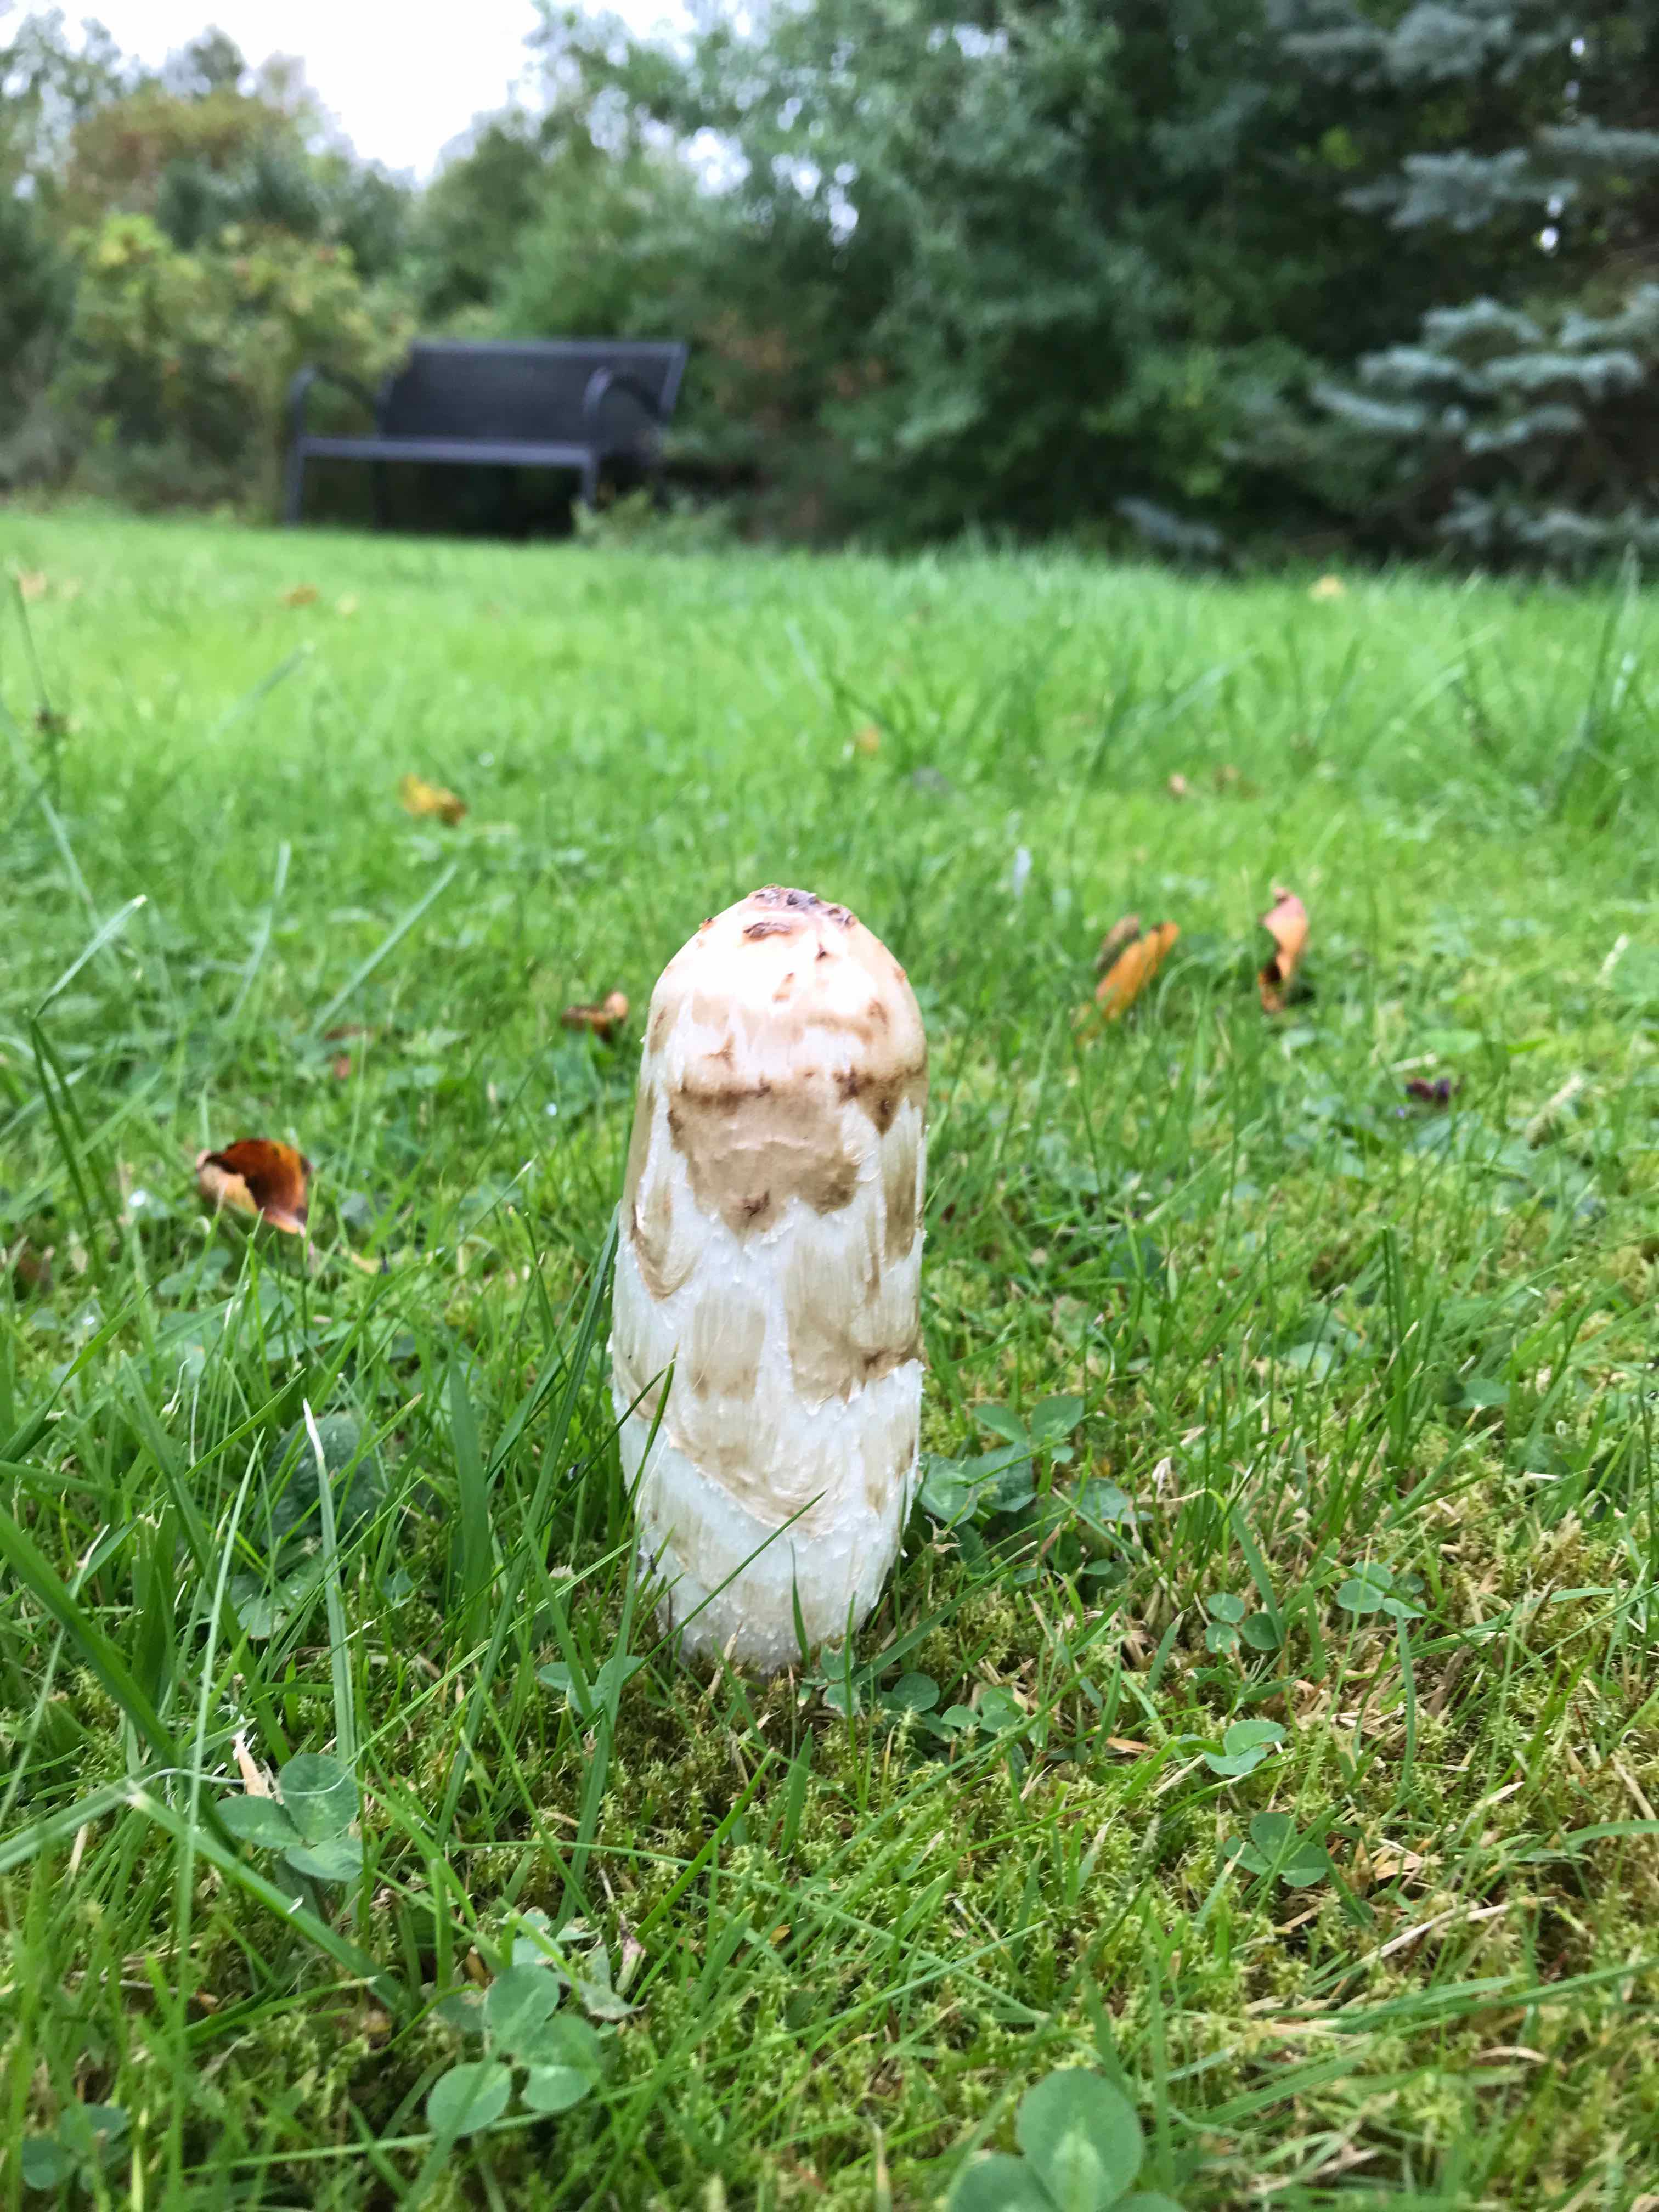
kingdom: Fungi
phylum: Basidiomycota
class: Agaricomycetes
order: Agaricales
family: Agaricaceae
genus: Coprinus
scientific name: Coprinus comatus
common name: stor parykhat
